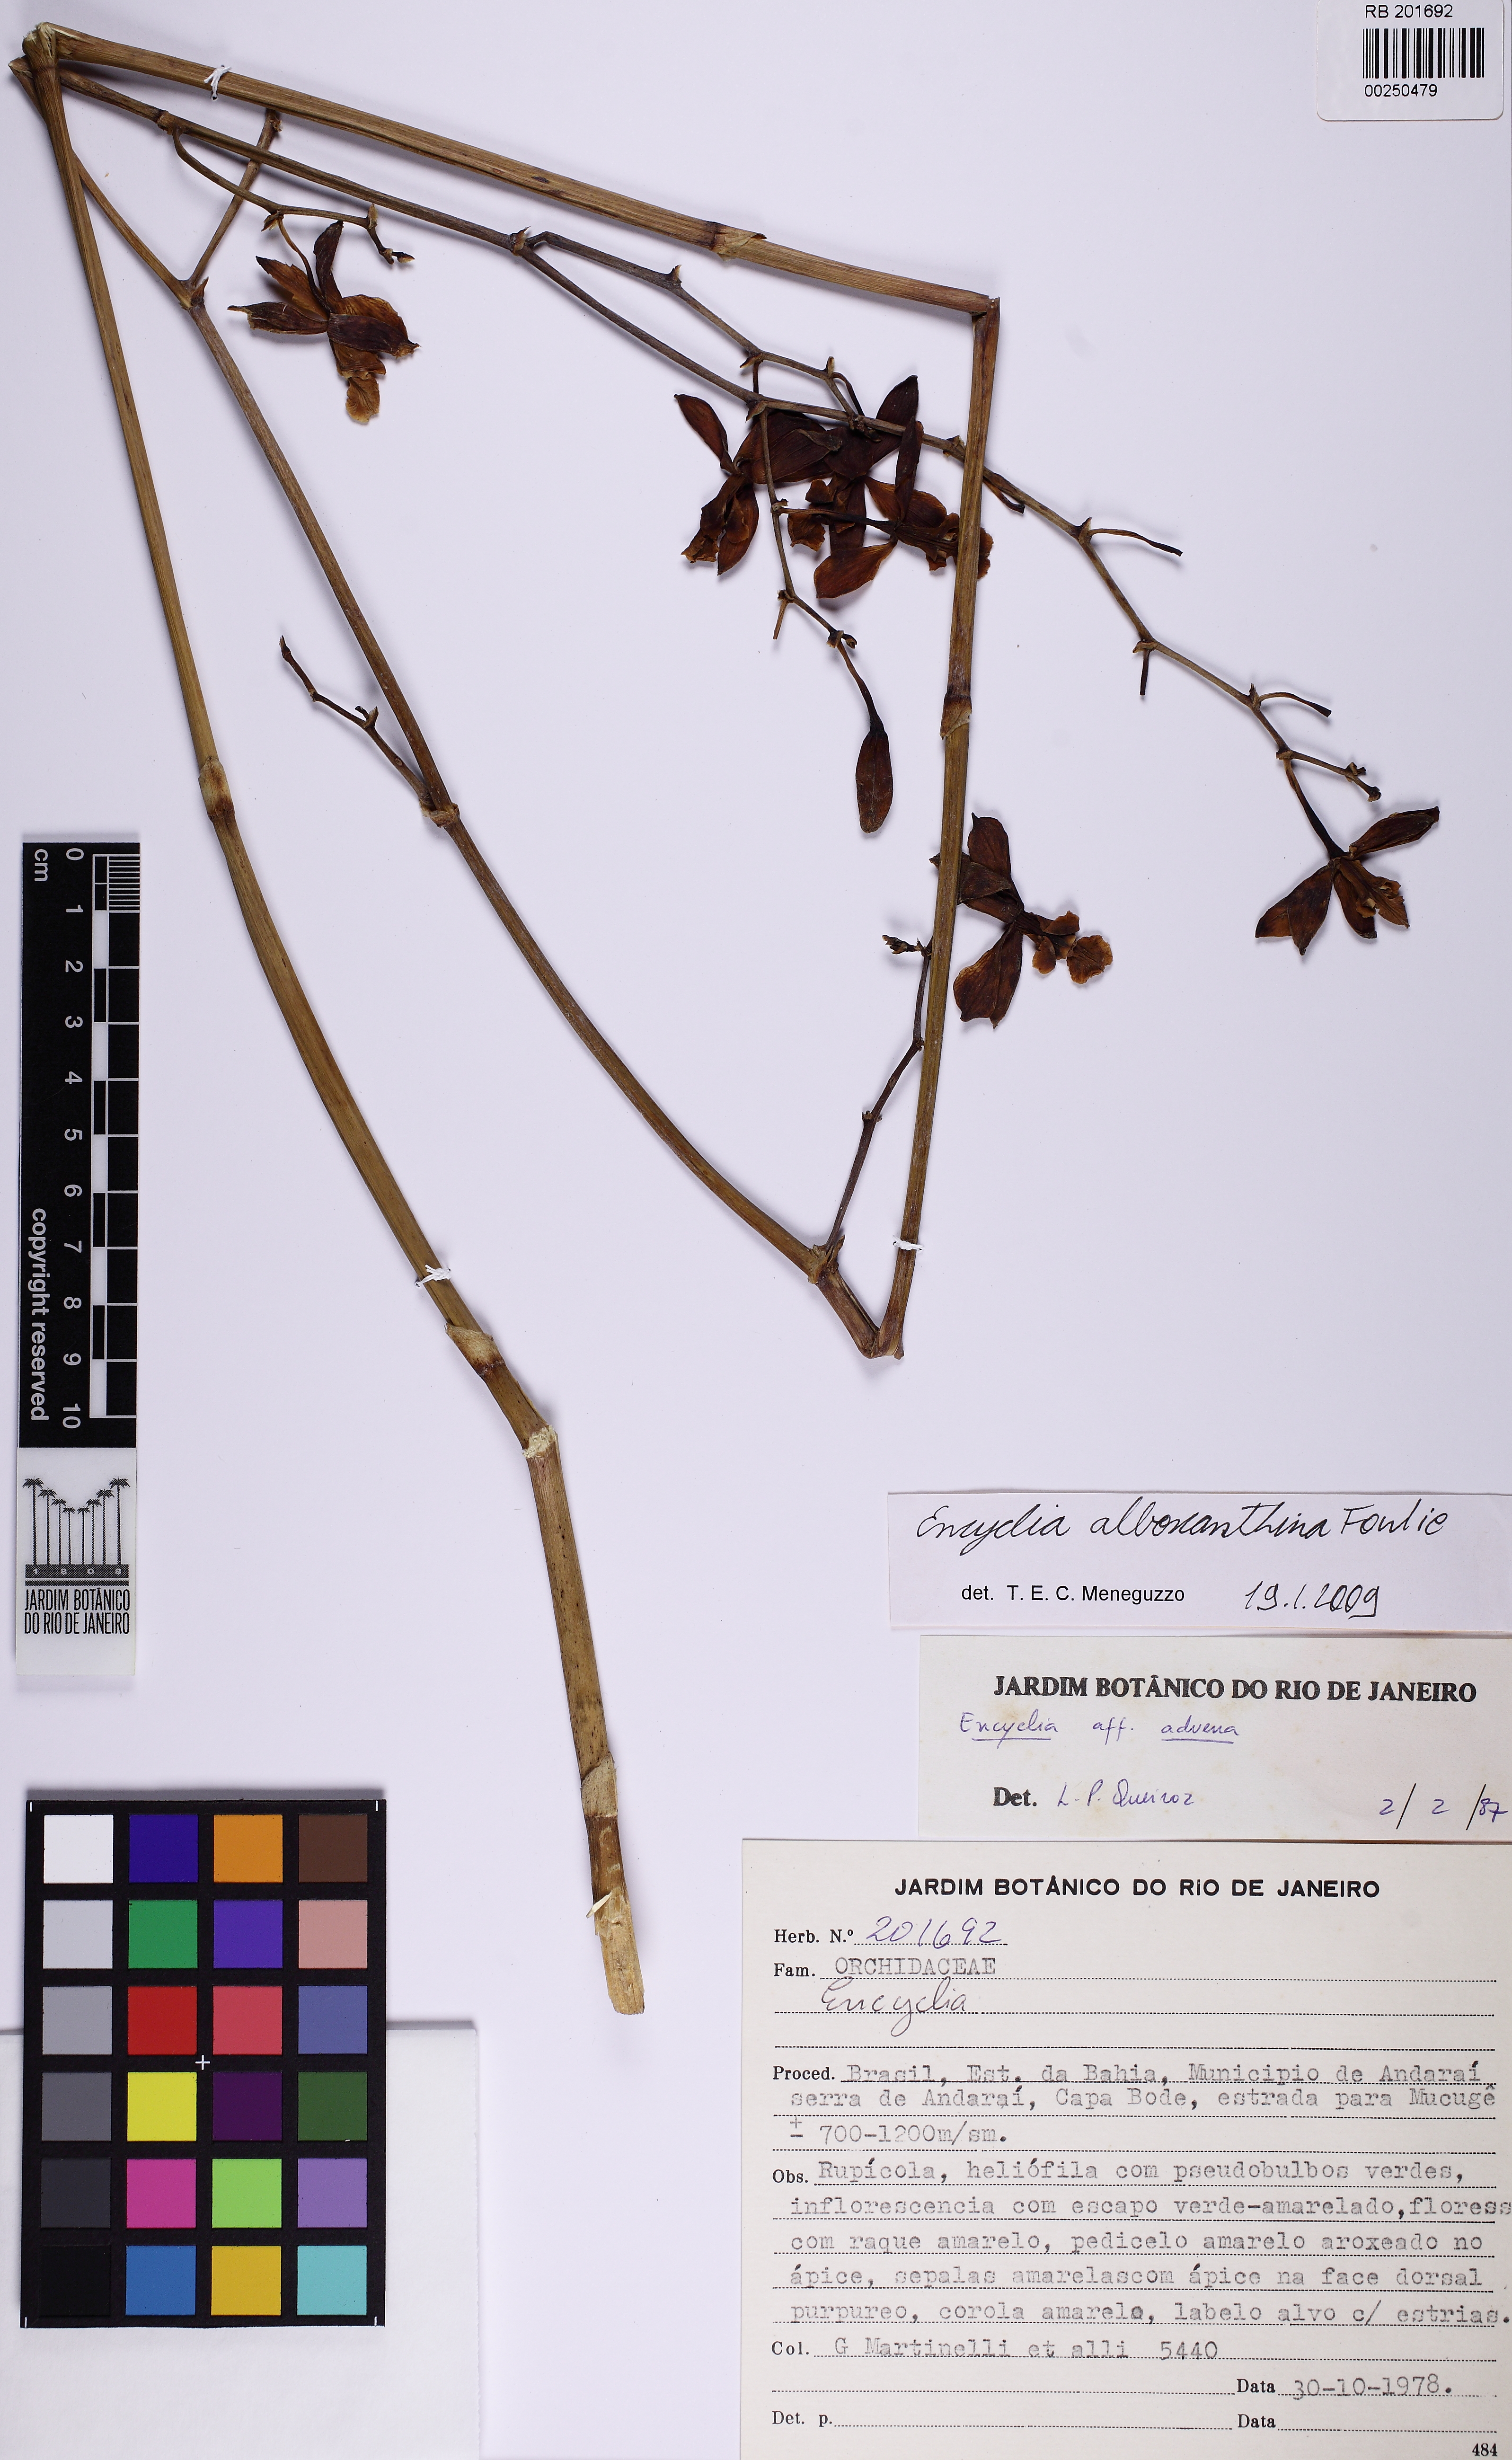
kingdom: Plantae
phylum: Tracheophyta
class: Liliopsida
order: Asparagales
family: Orchidaceae
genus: Encyclia
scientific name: Encyclia alboxanthina
